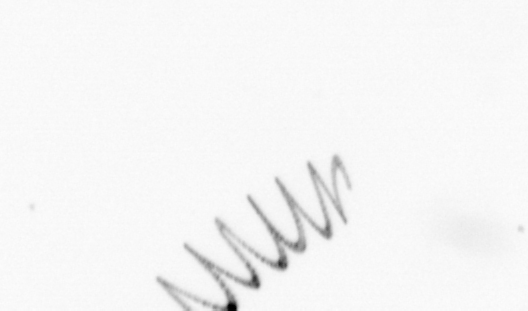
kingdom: Chromista
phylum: Ochrophyta
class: Bacillariophyceae
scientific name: Bacillariophyceae
